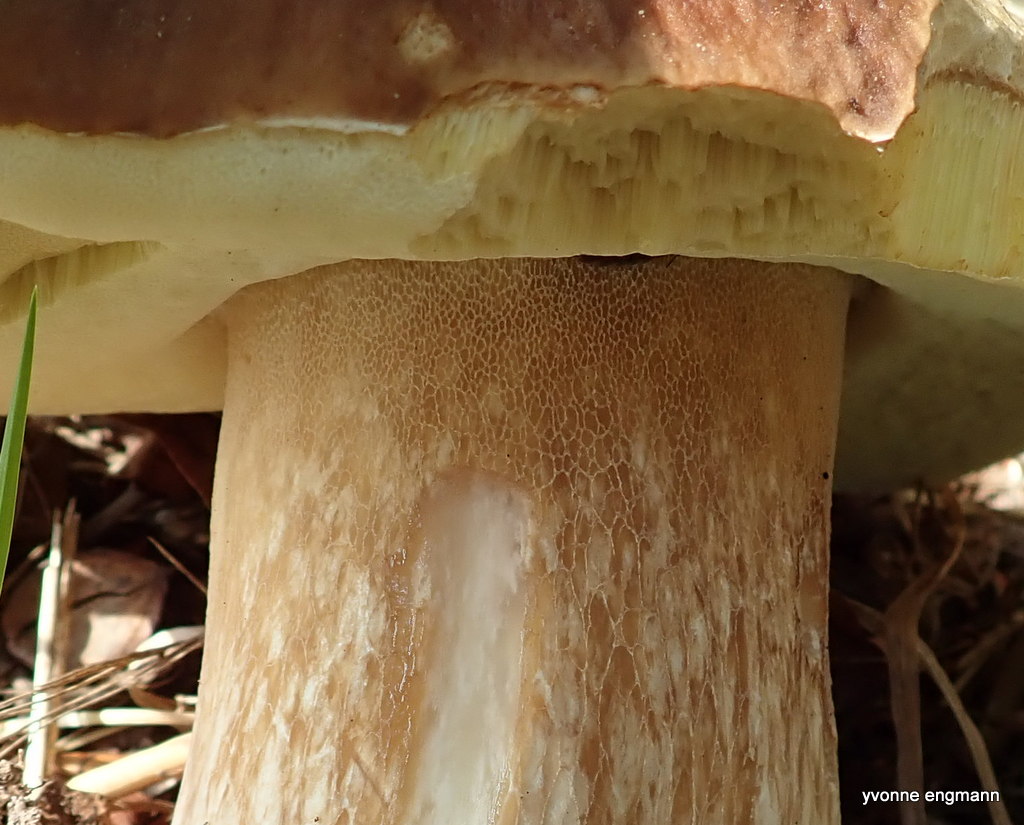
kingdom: Fungi
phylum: Basidiomycota
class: Agaricomycetes
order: Boletales
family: Boletaceae
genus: Boletus
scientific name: Boletus edulis
